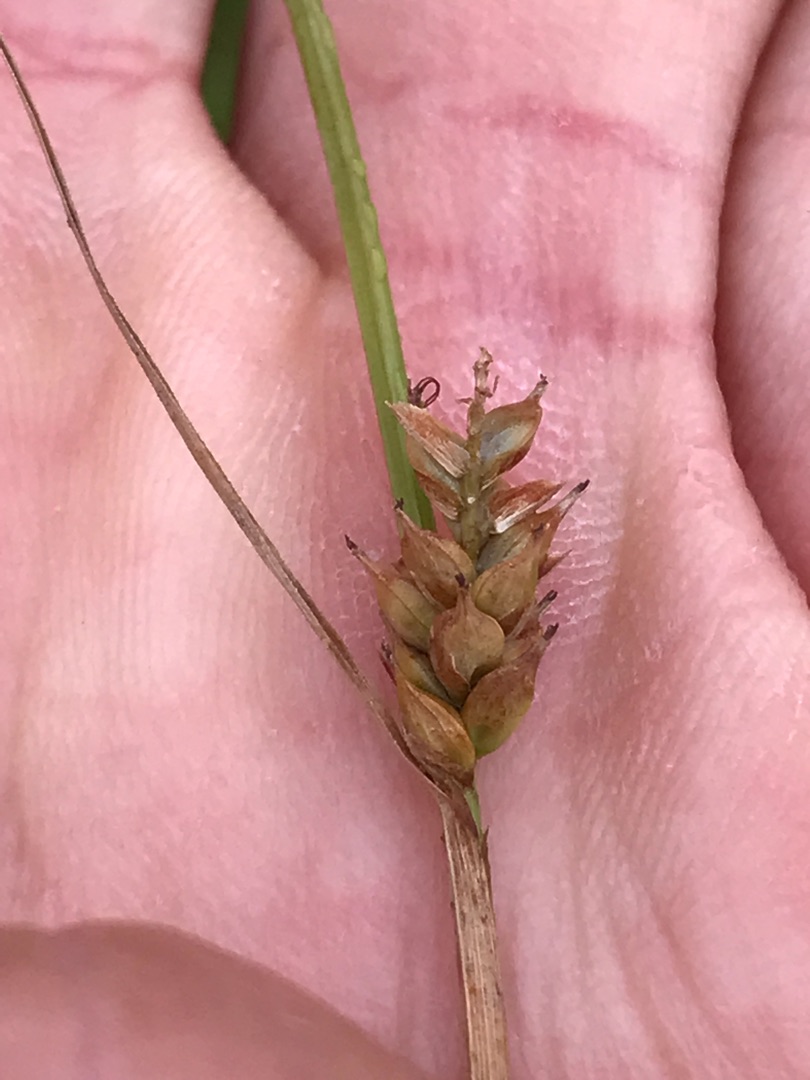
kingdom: Plantae
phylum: Tracheophyta
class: Liliopsida
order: Poales
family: Cyperaceae
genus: Carex
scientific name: Carex distans
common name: Fjernakset star
